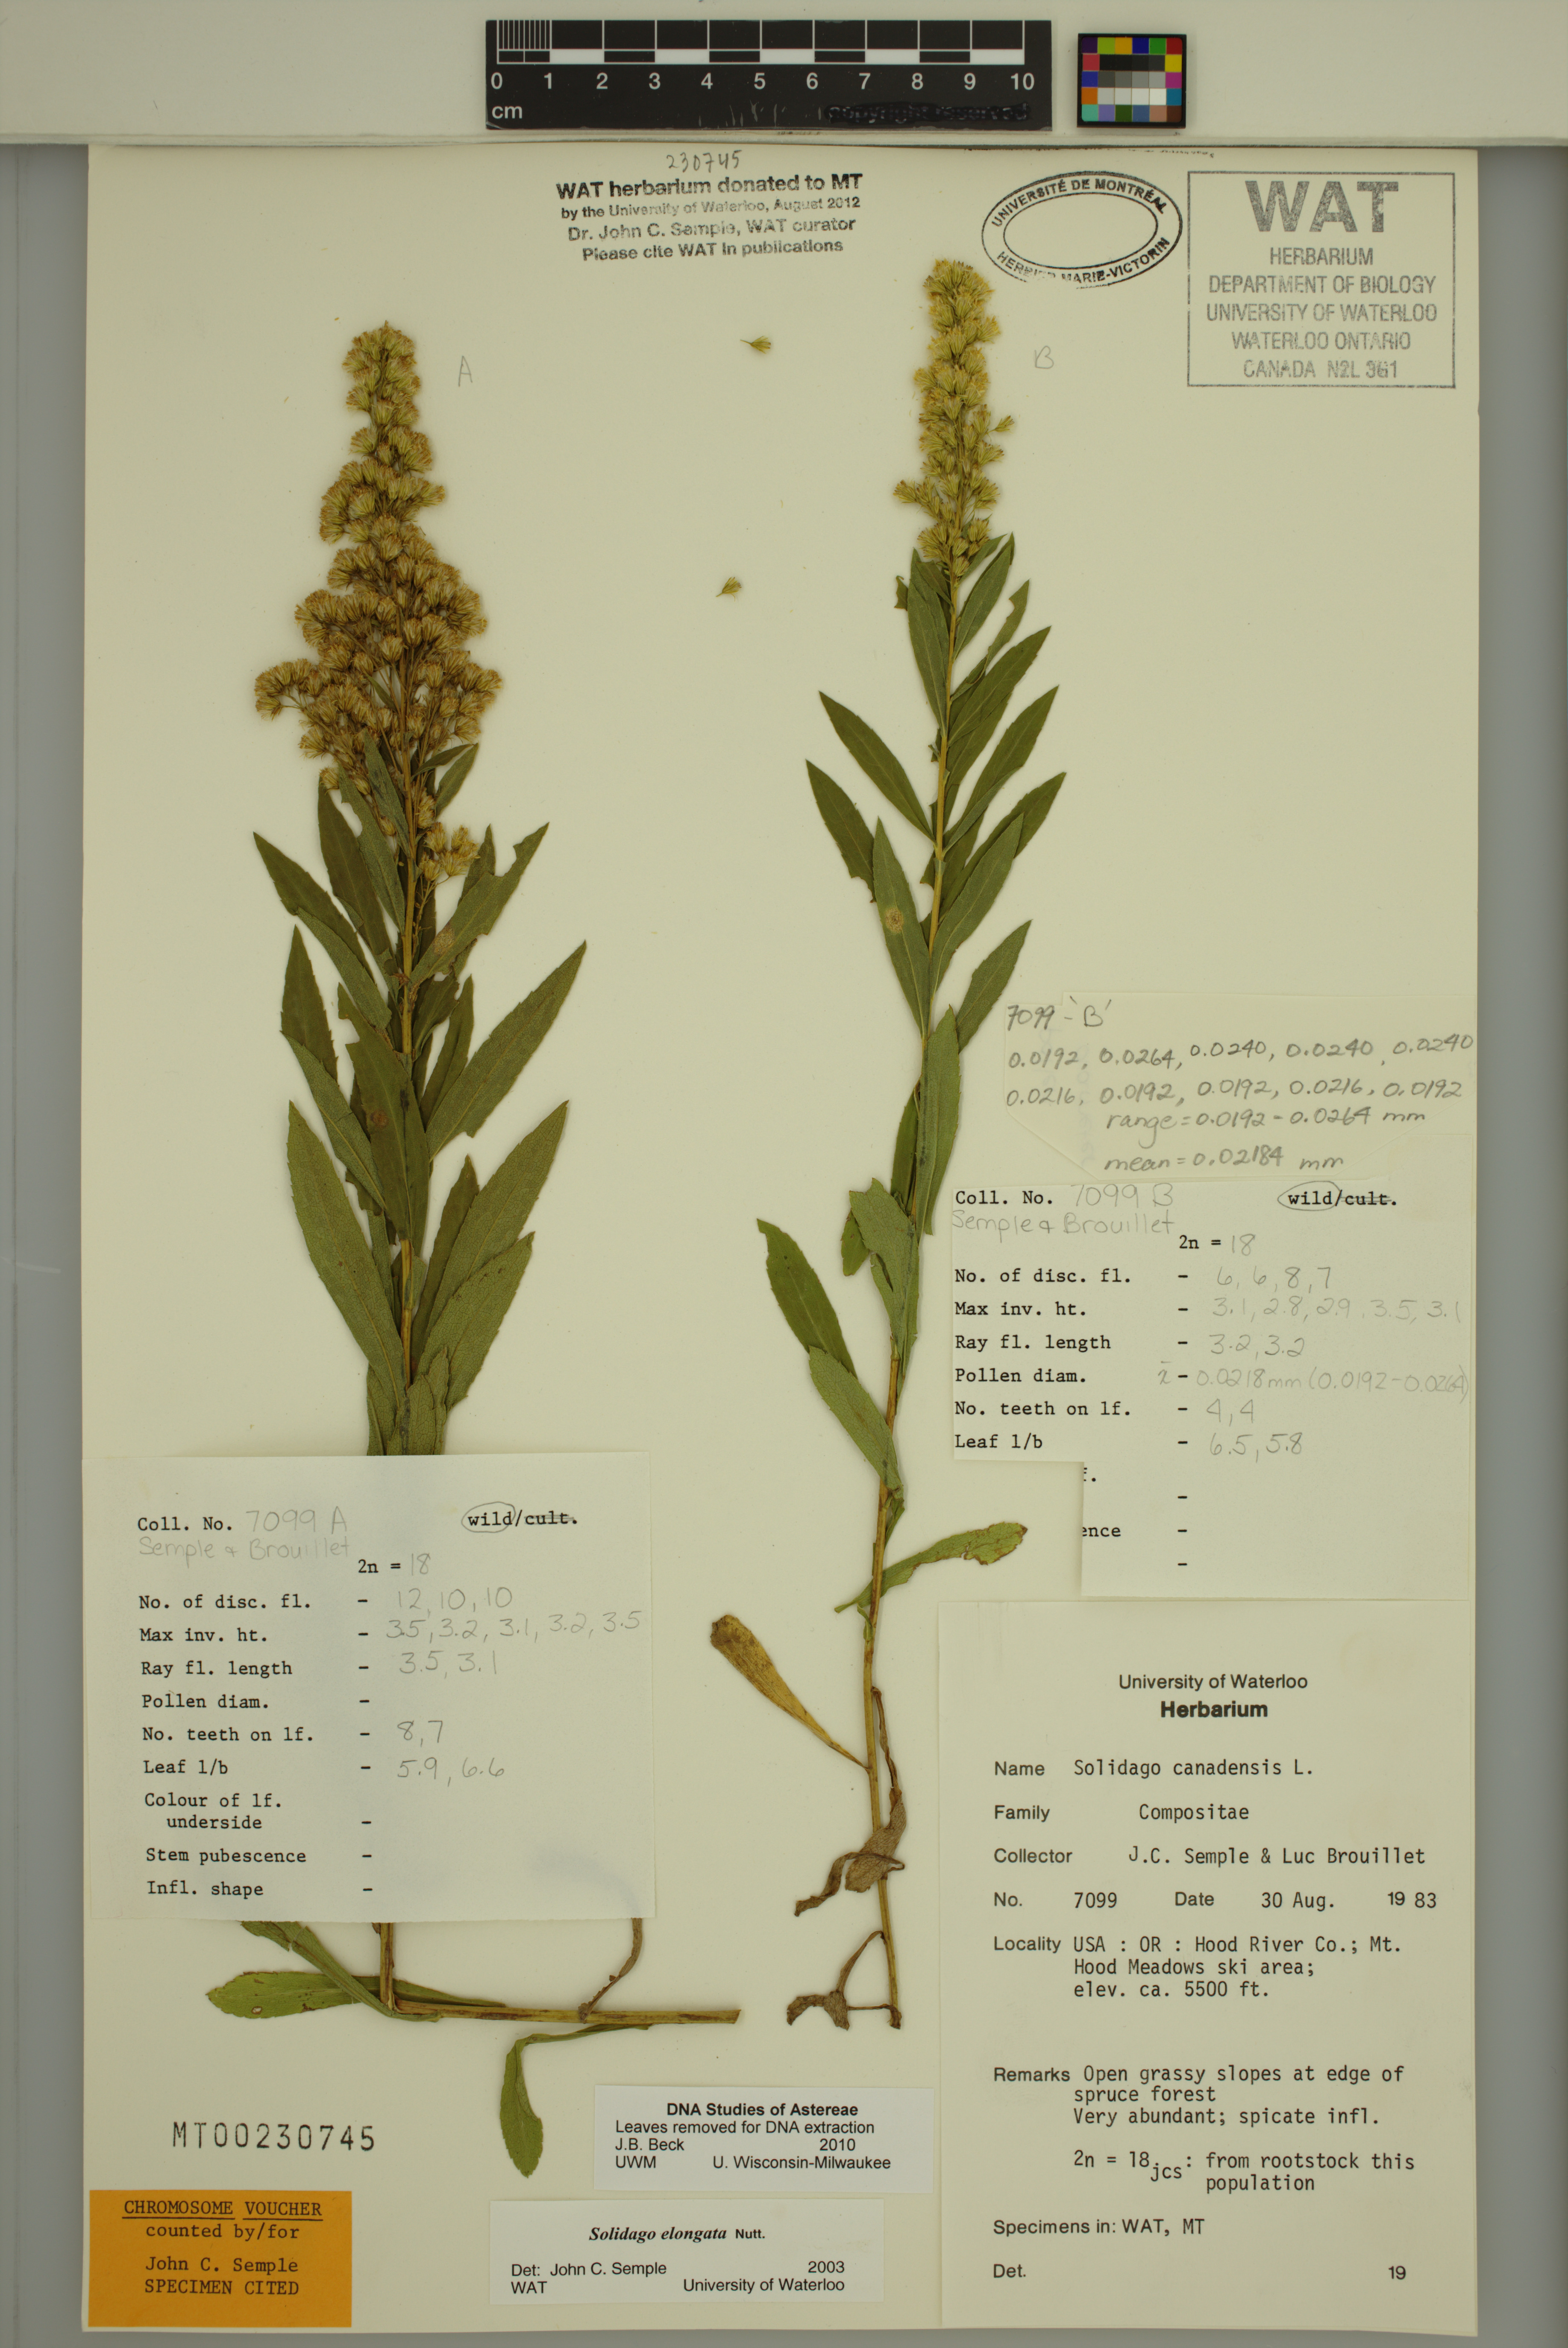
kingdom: Plantae
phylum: Tracheophyta
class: Magnoliopsida
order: Asterales
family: Asteraceae
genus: Solidago
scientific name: Solidago elongata
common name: Cascade canada goldenrod
